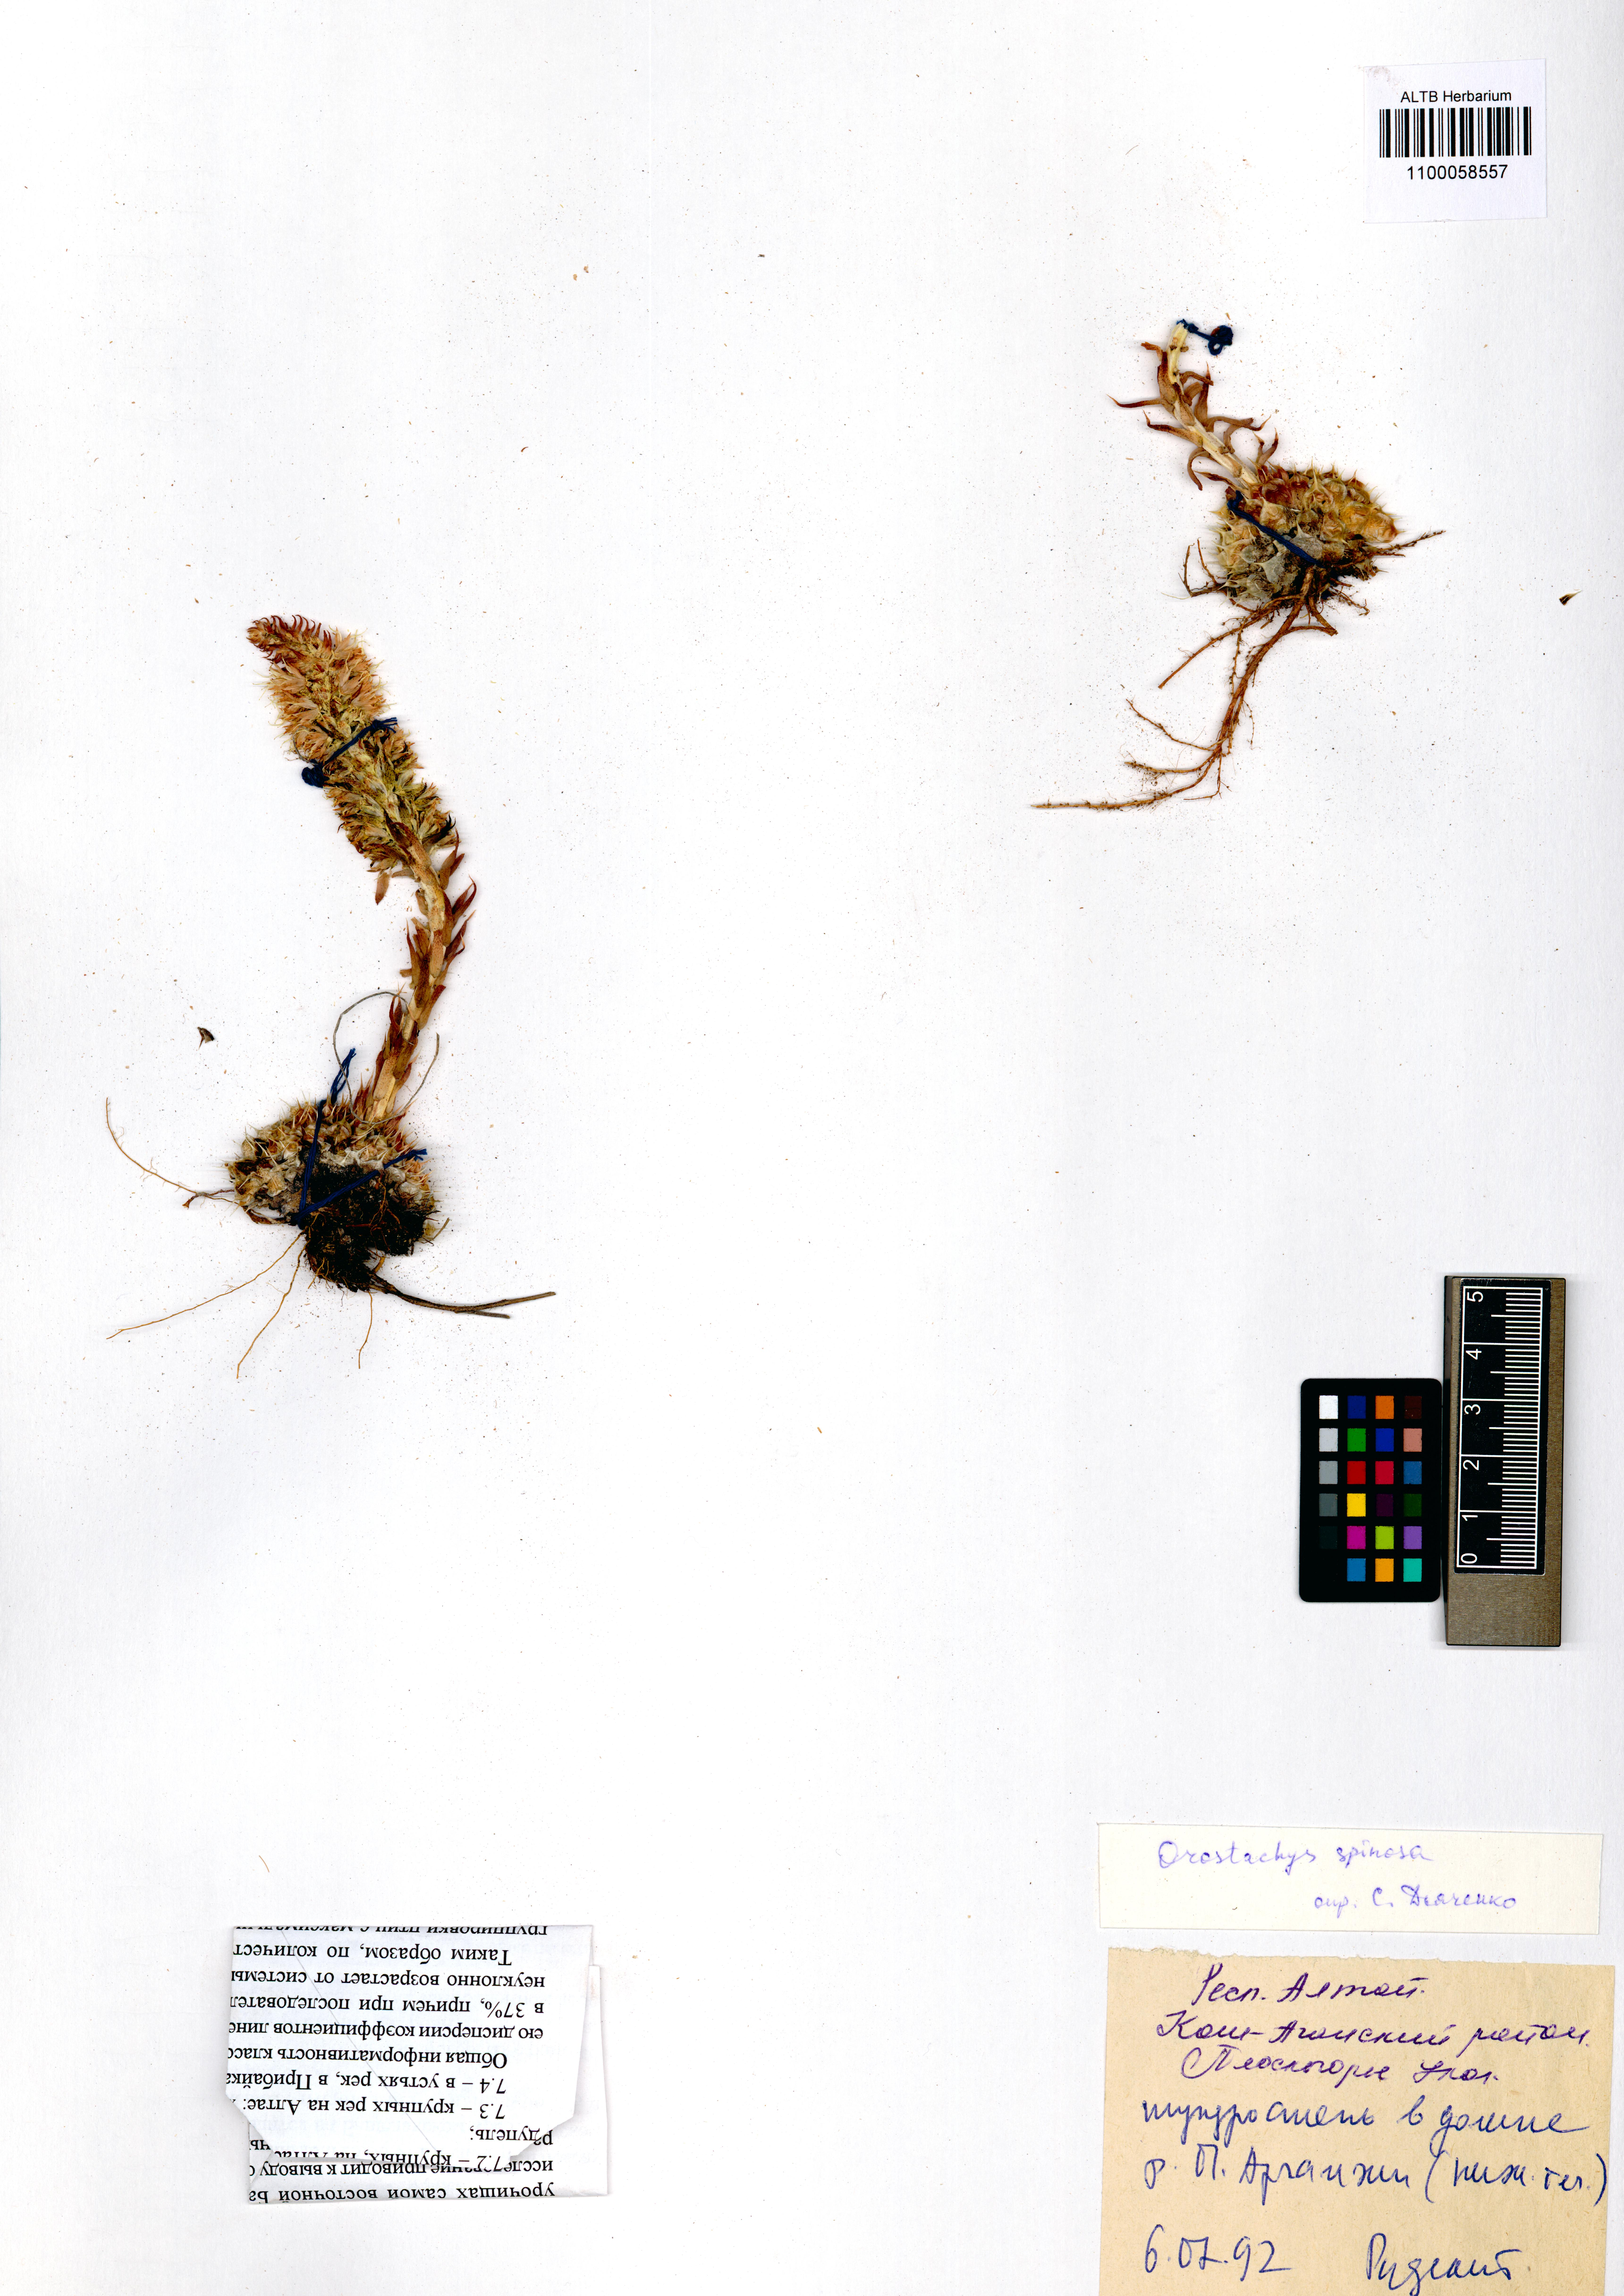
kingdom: Plantae
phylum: Tracheophyta
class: Magnoliopsida
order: Saxifragales
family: Crassulaceae
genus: Orostachys
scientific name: Orostachys spinosa
